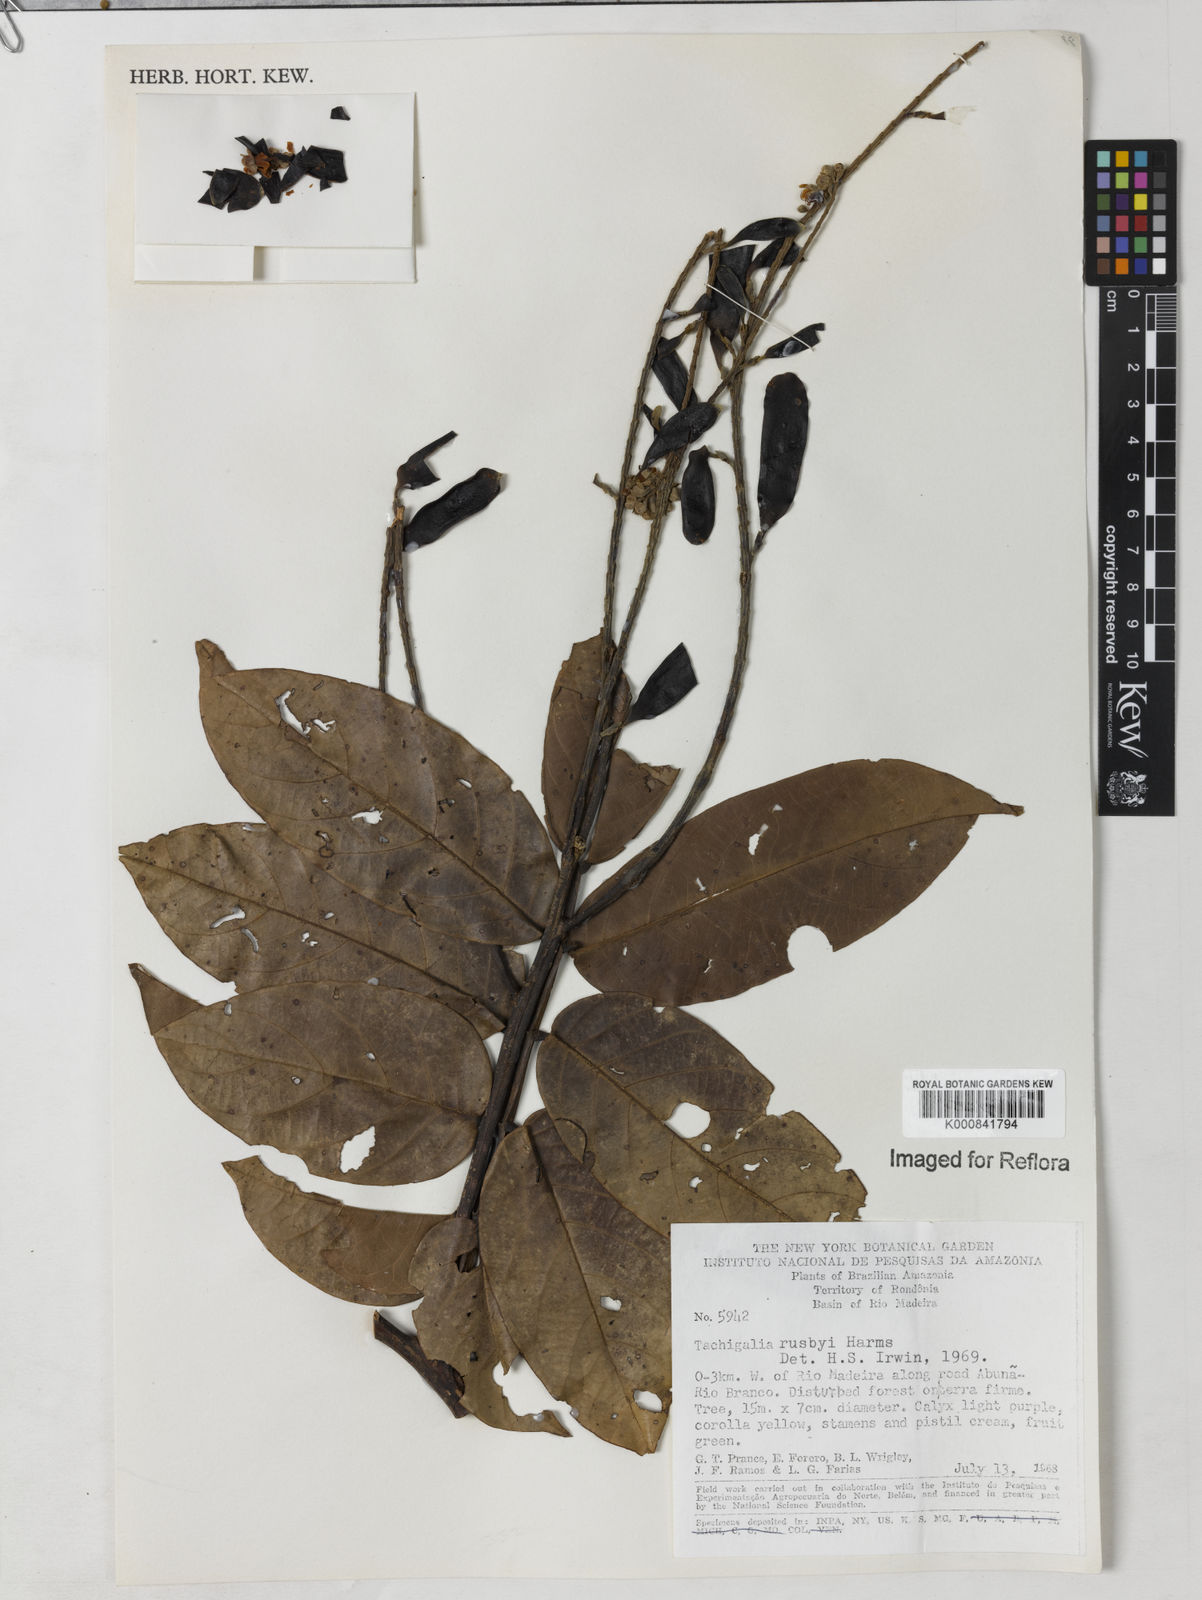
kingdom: Plantae
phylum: Tracheophyta
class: Magnoliopsida
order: Fabales
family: Fabaceae
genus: Tachigali
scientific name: Tachigali paniculata
